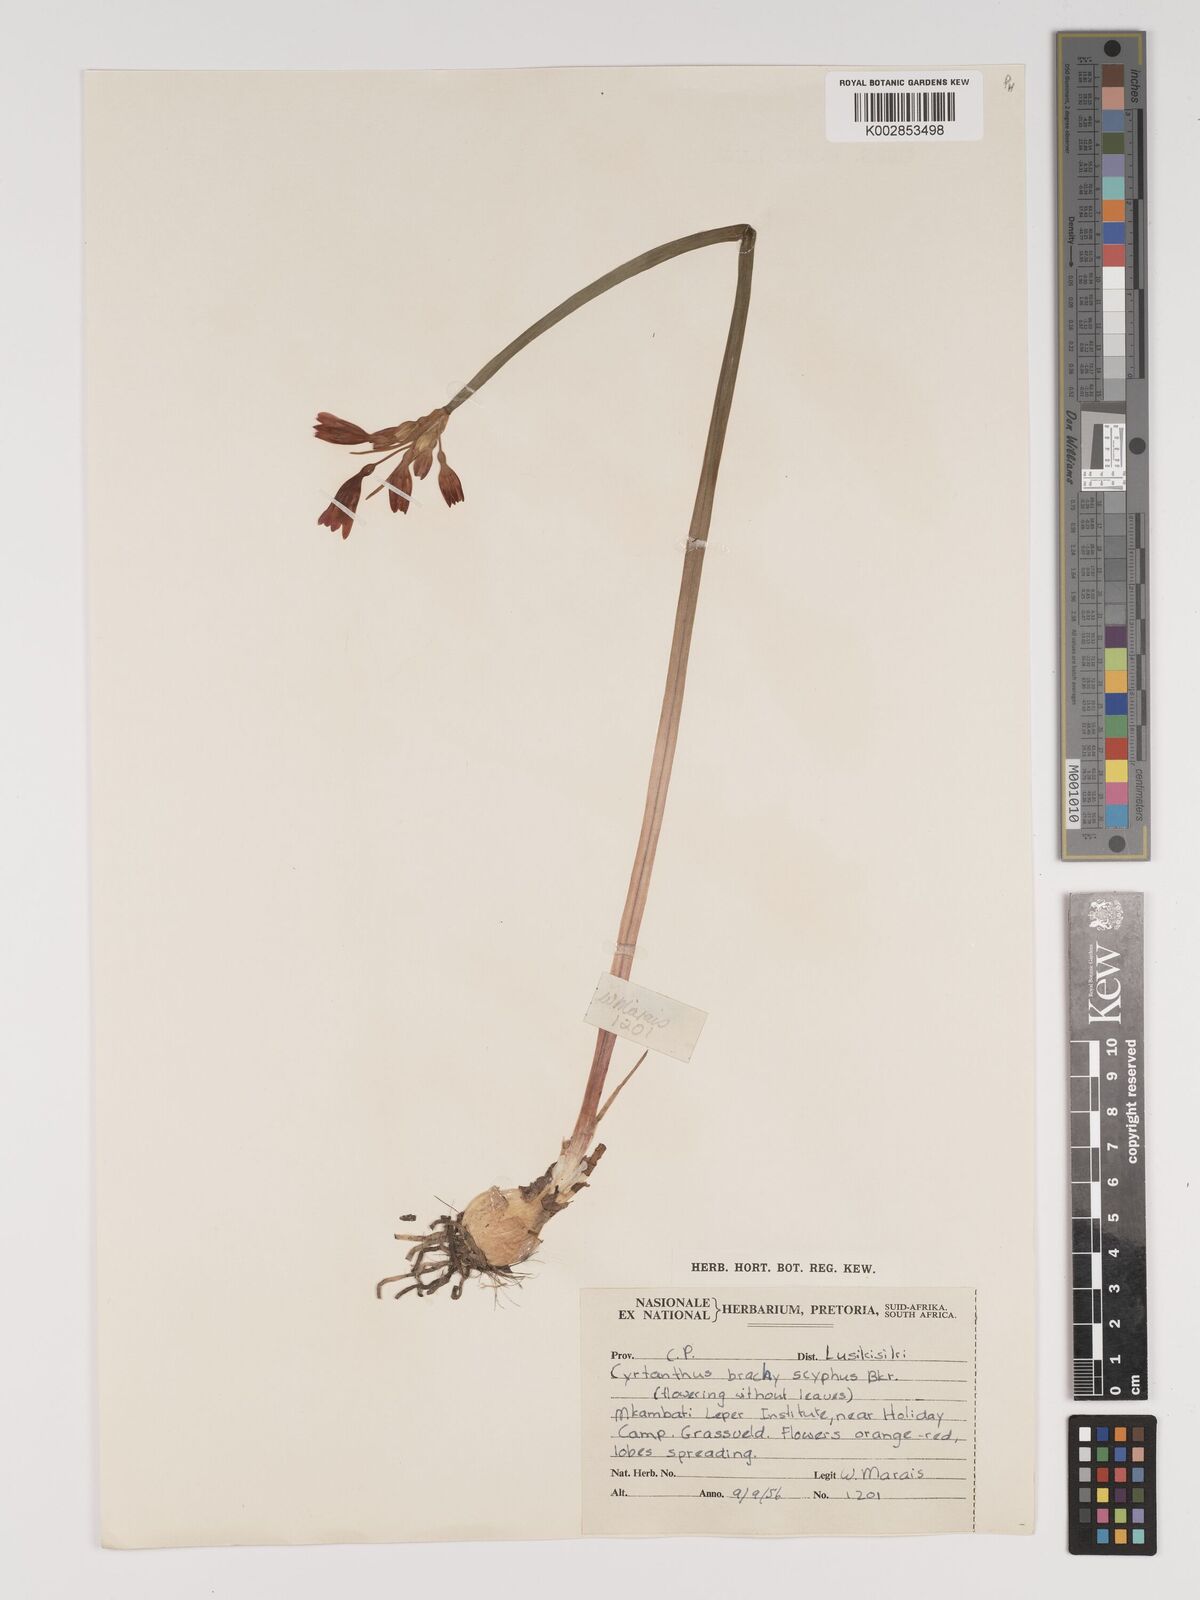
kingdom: Plantae
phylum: Tracheophyta
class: Liliopsida
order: Asparagales
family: Amaryllidaceae
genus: Cyrtanthus
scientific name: Cyrtanthus brachyscyphus
